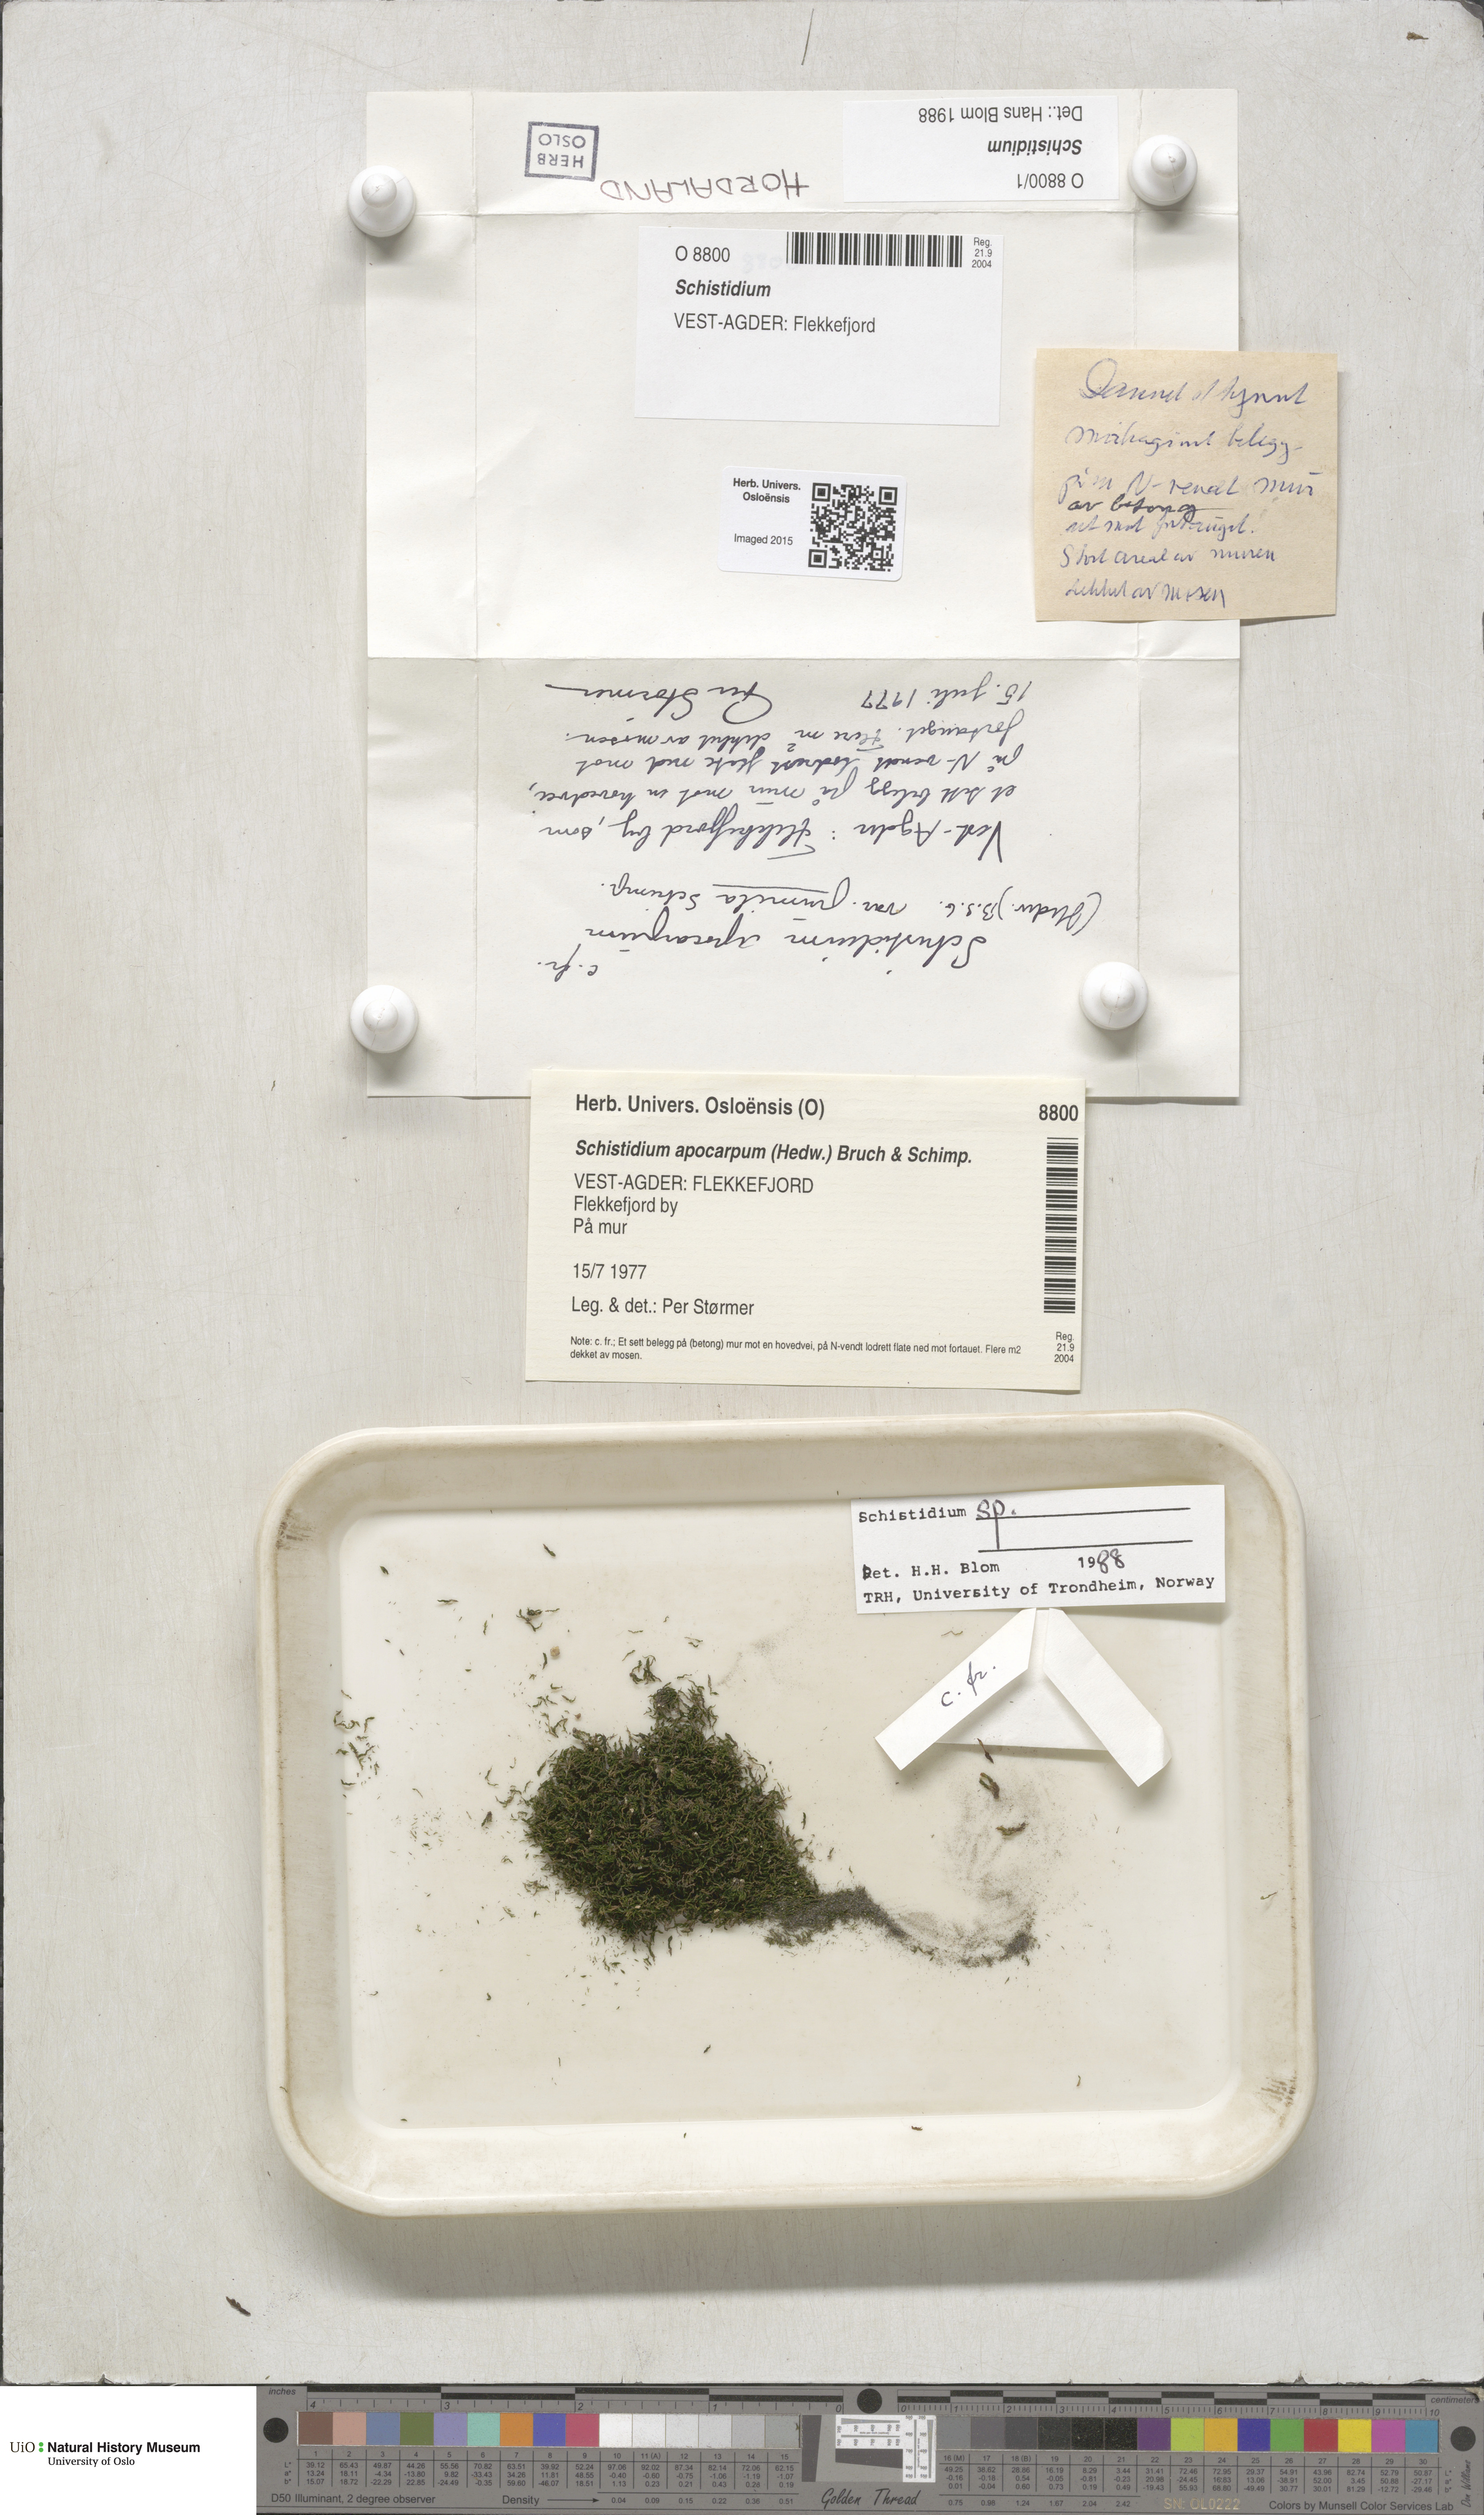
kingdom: Plantae
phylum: Bryophyta
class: Bryopsida
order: Grimmiales
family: Grimmiaceae
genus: Schistidium
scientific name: Schistidium
